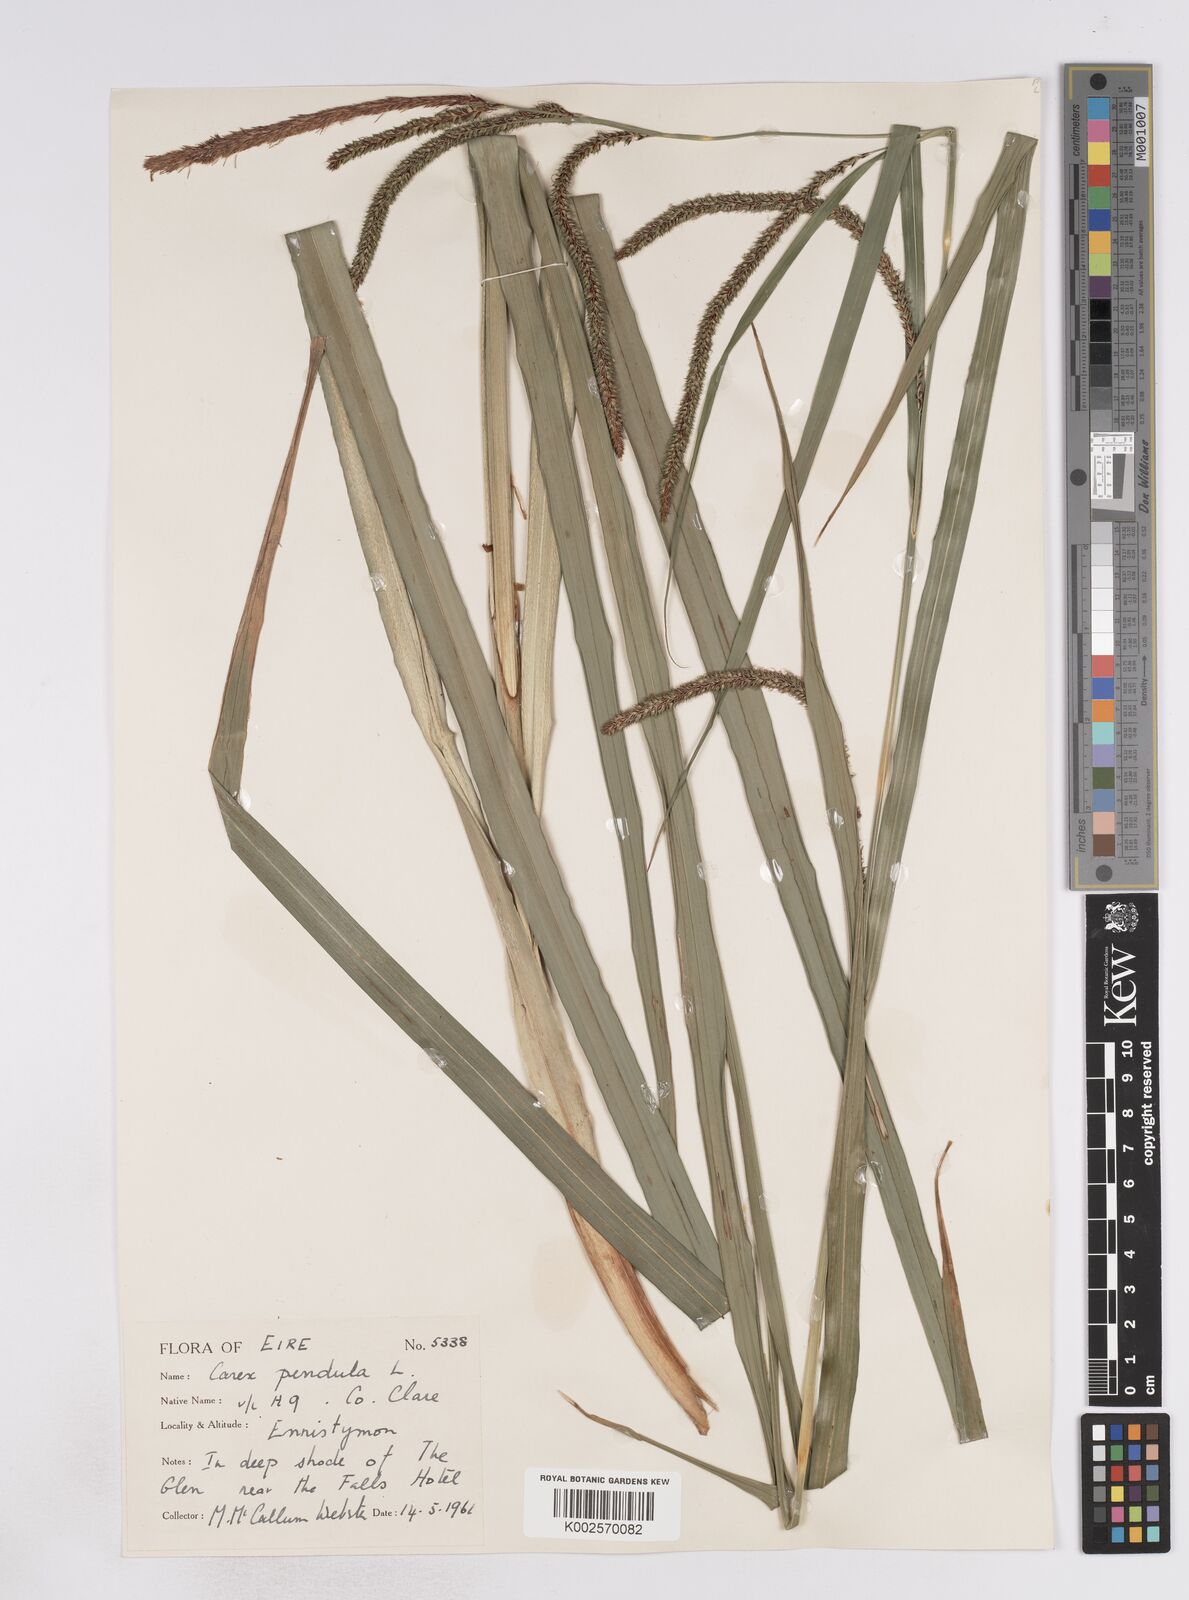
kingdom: Plantae
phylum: Tracheophyta
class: Liliopsida
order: Poales
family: Cyperaceae
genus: Carex
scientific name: Carex pendula
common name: Pendulous sedge
